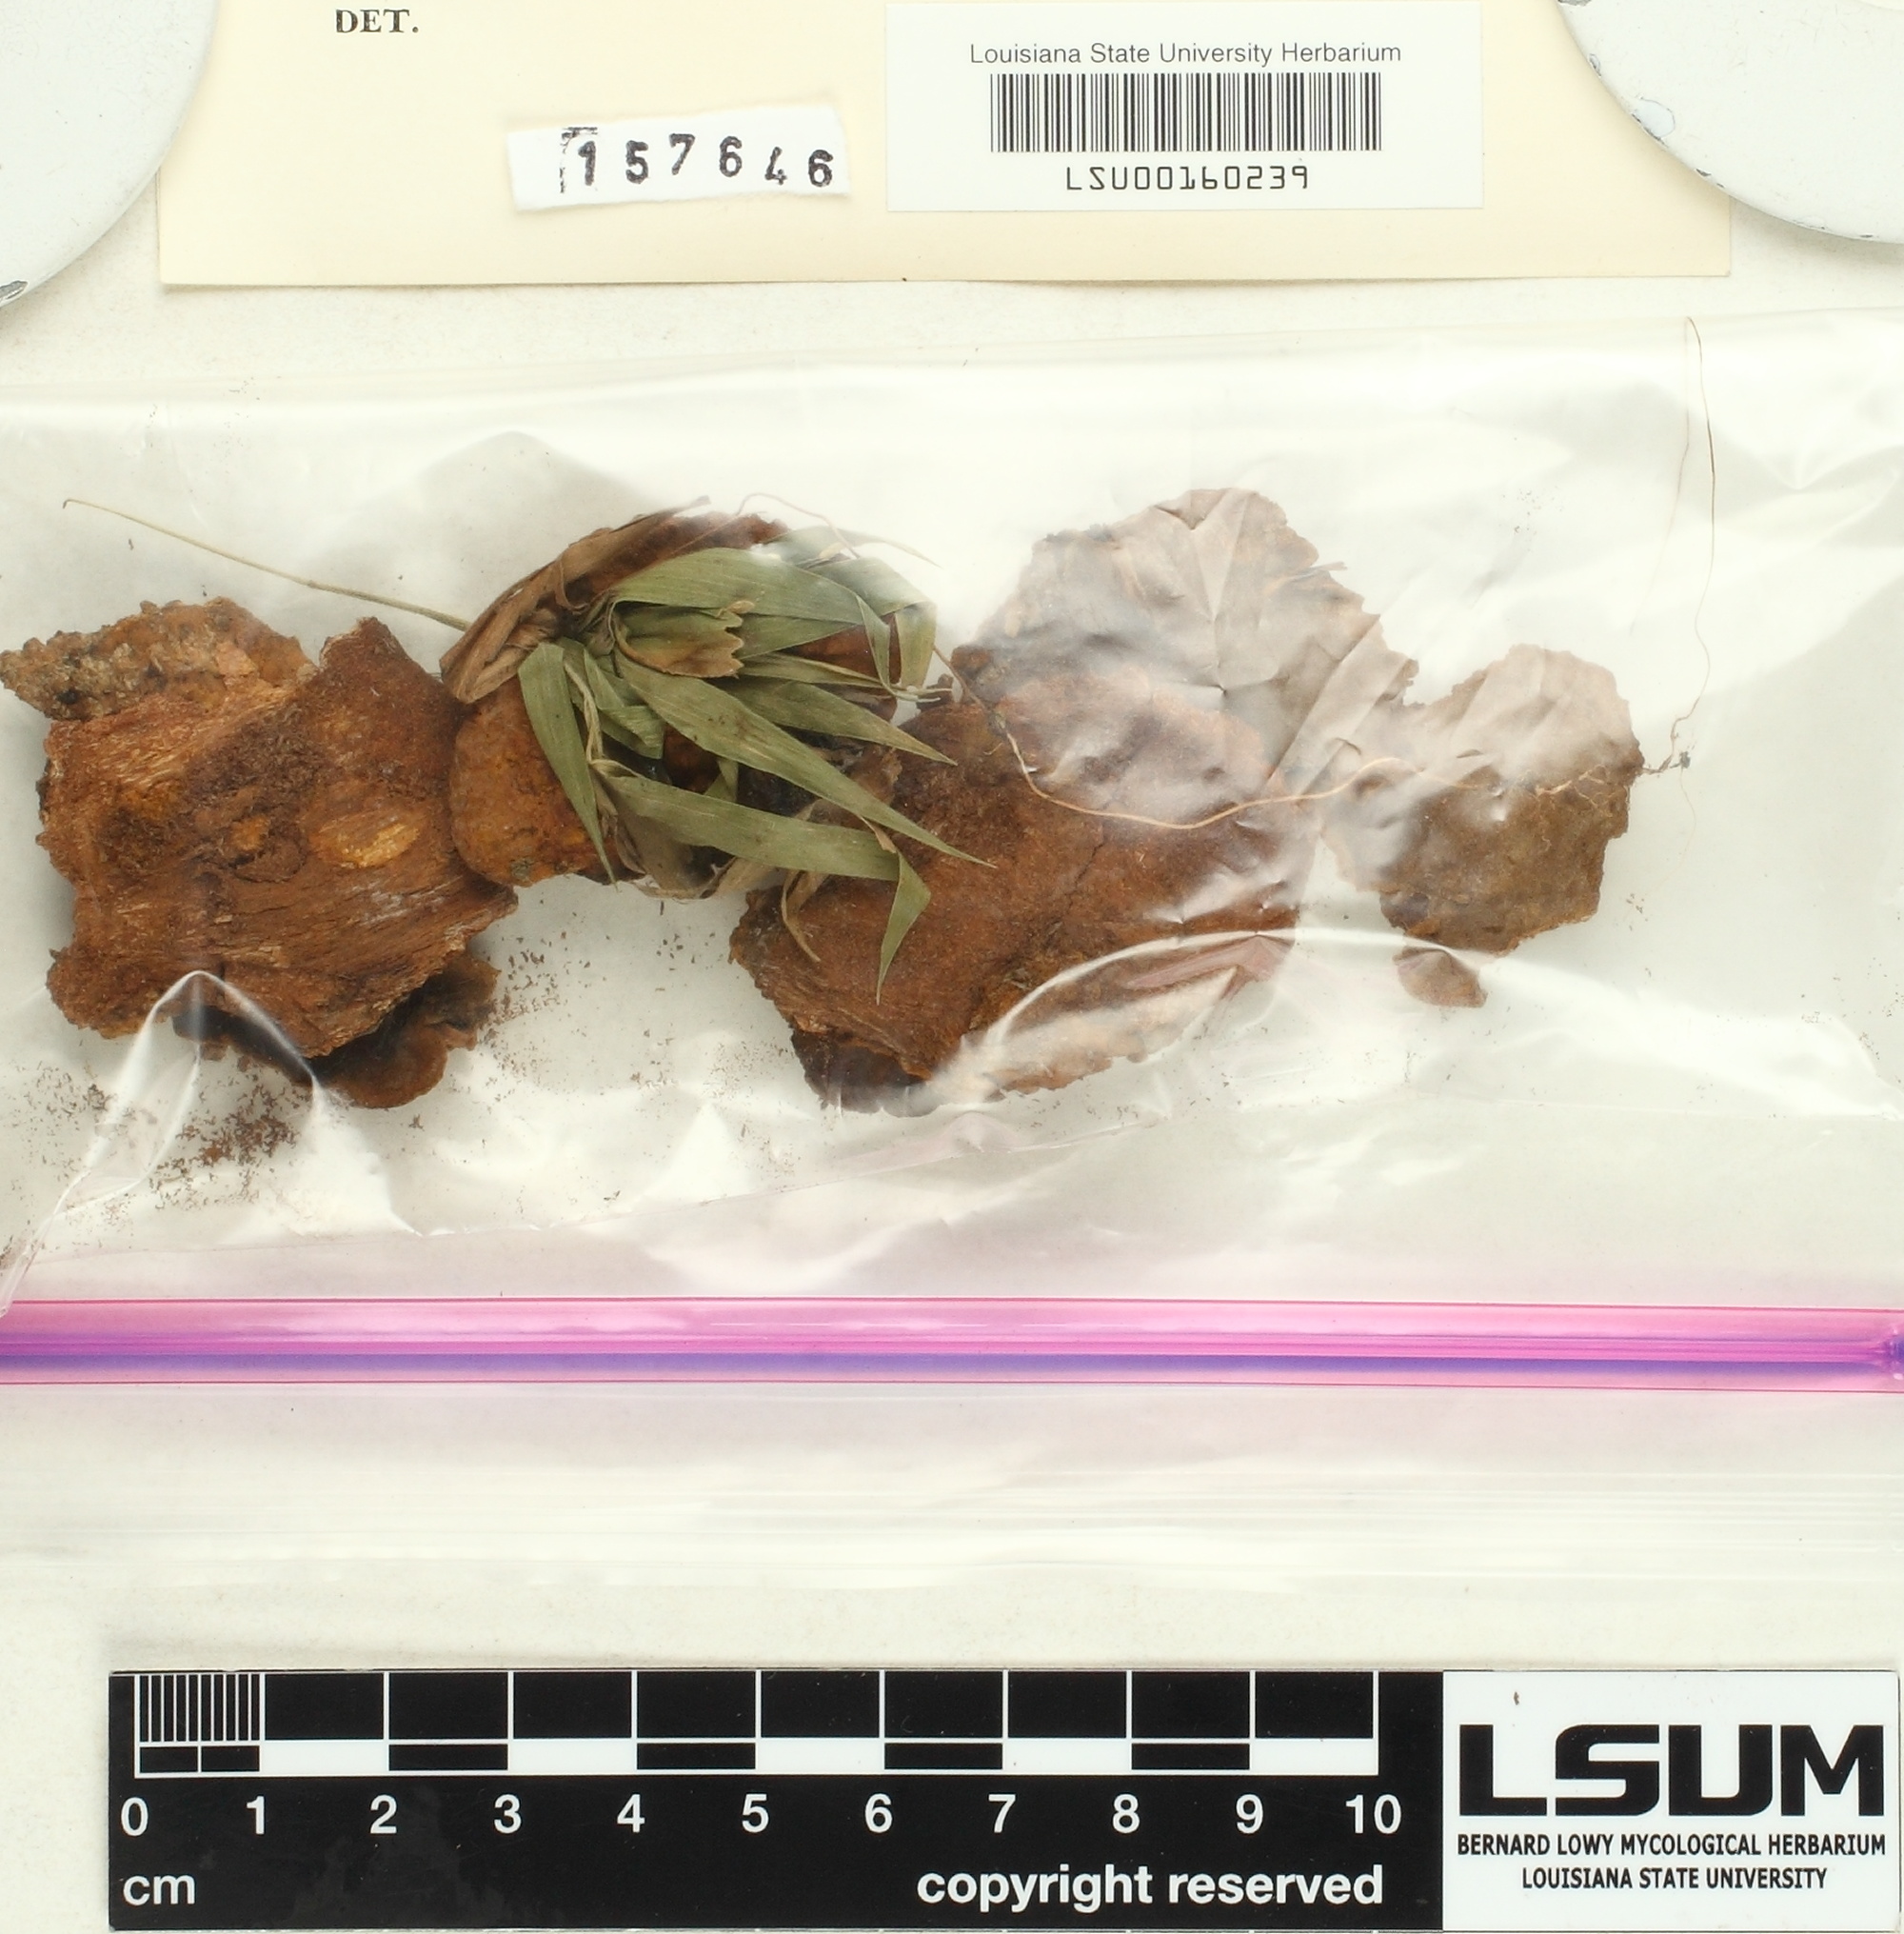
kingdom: Fungi
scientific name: Fungi
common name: Fungi
